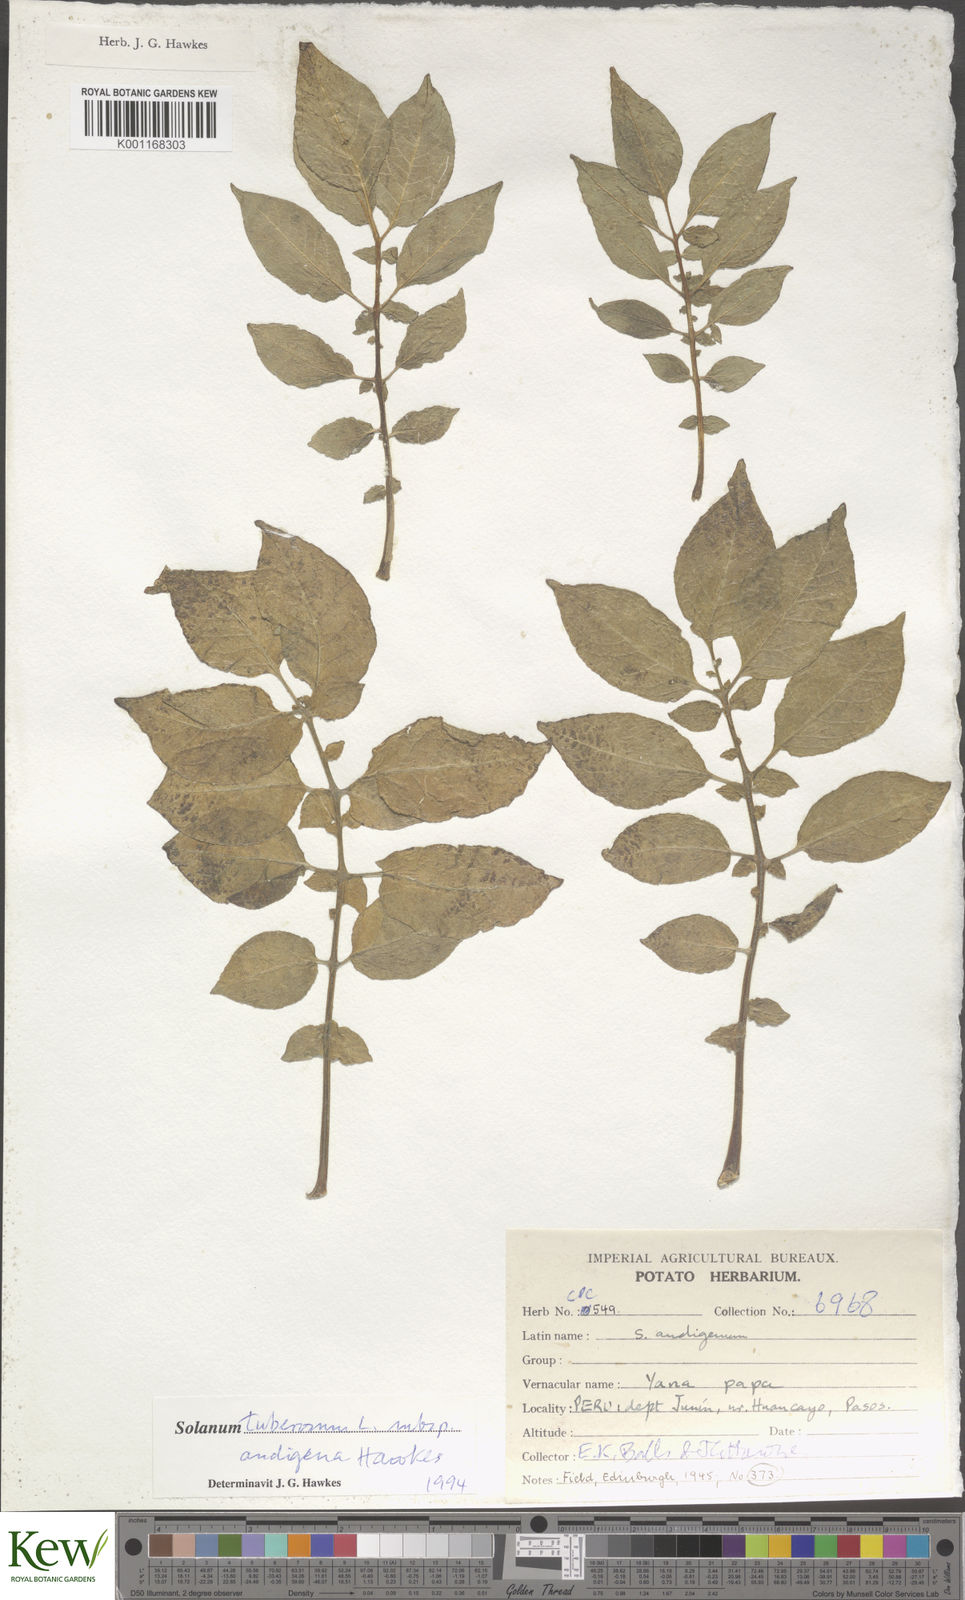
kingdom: Plantae
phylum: Tracheophyta
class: Magnoliopsida
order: Solanales
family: Solanaceae
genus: Solanum
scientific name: Solanum tuberosum
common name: Potato
